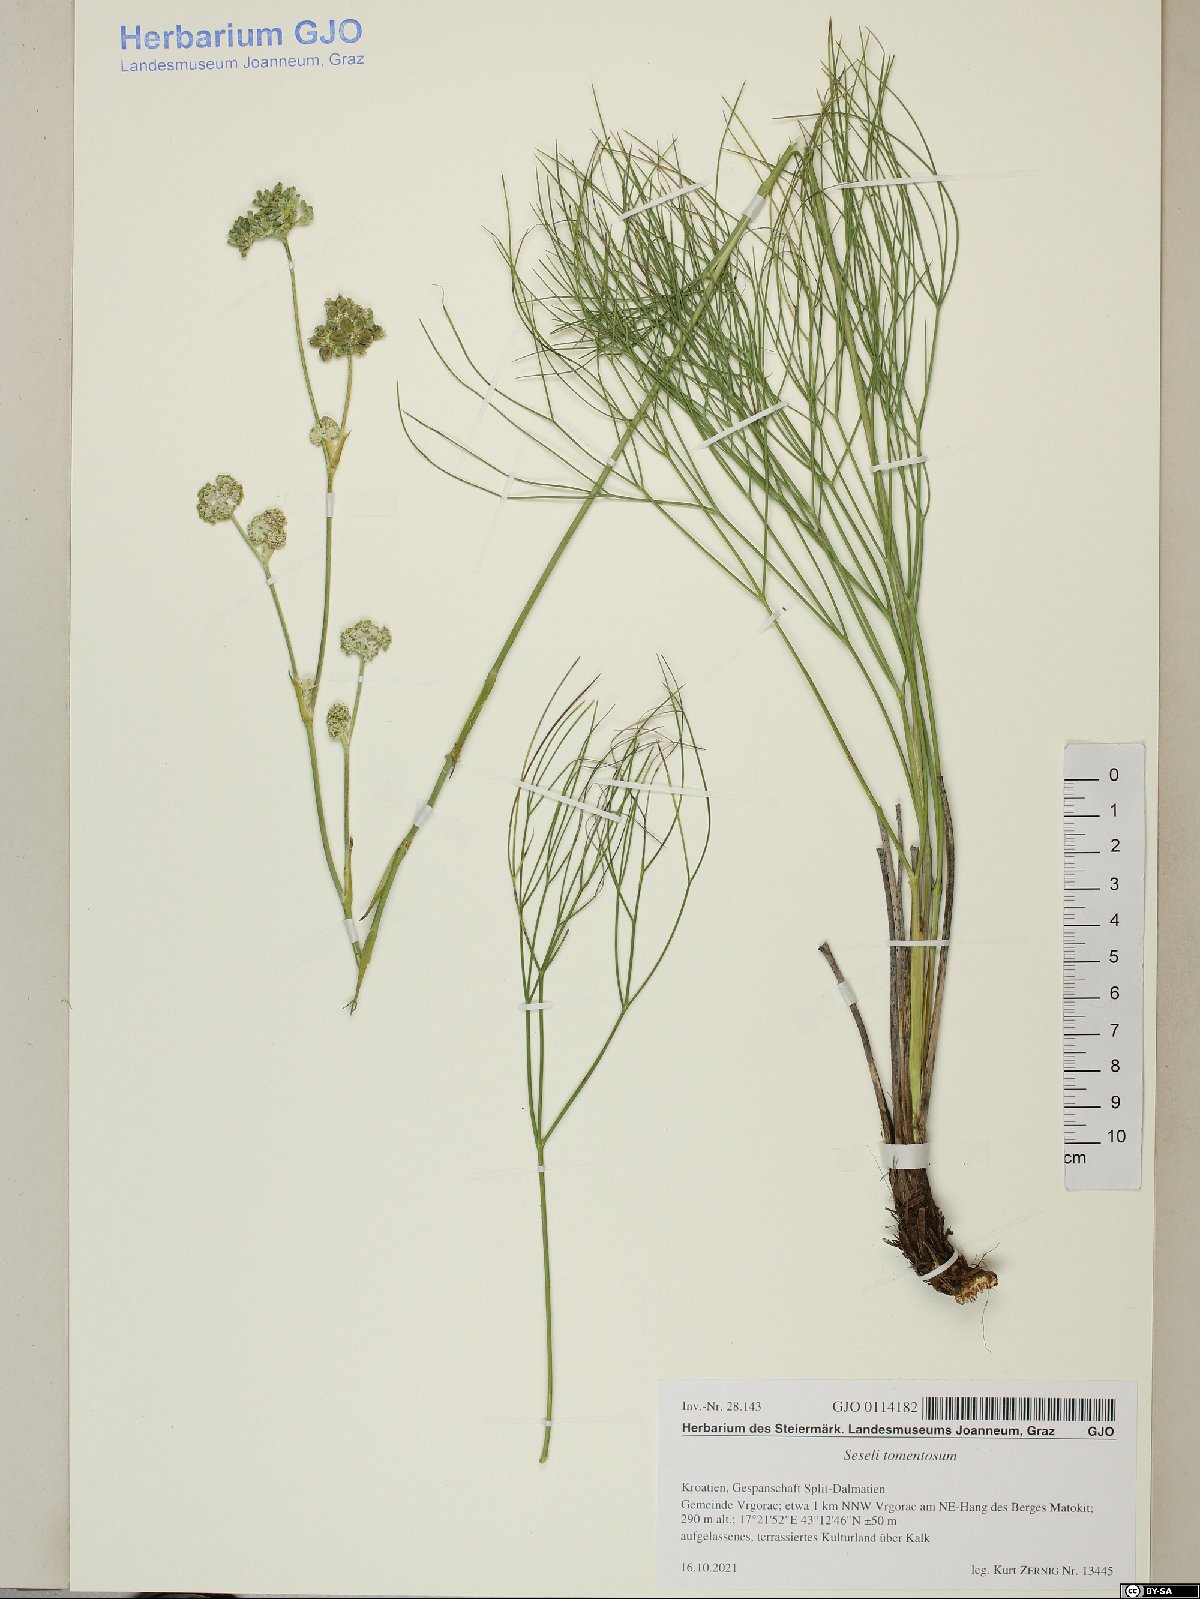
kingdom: Plantae
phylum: Tracheophyta
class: Magnoliopsida
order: Apiales
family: Apiaceae
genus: Cyathoselinum
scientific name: Cyathoselinum tomentosum
